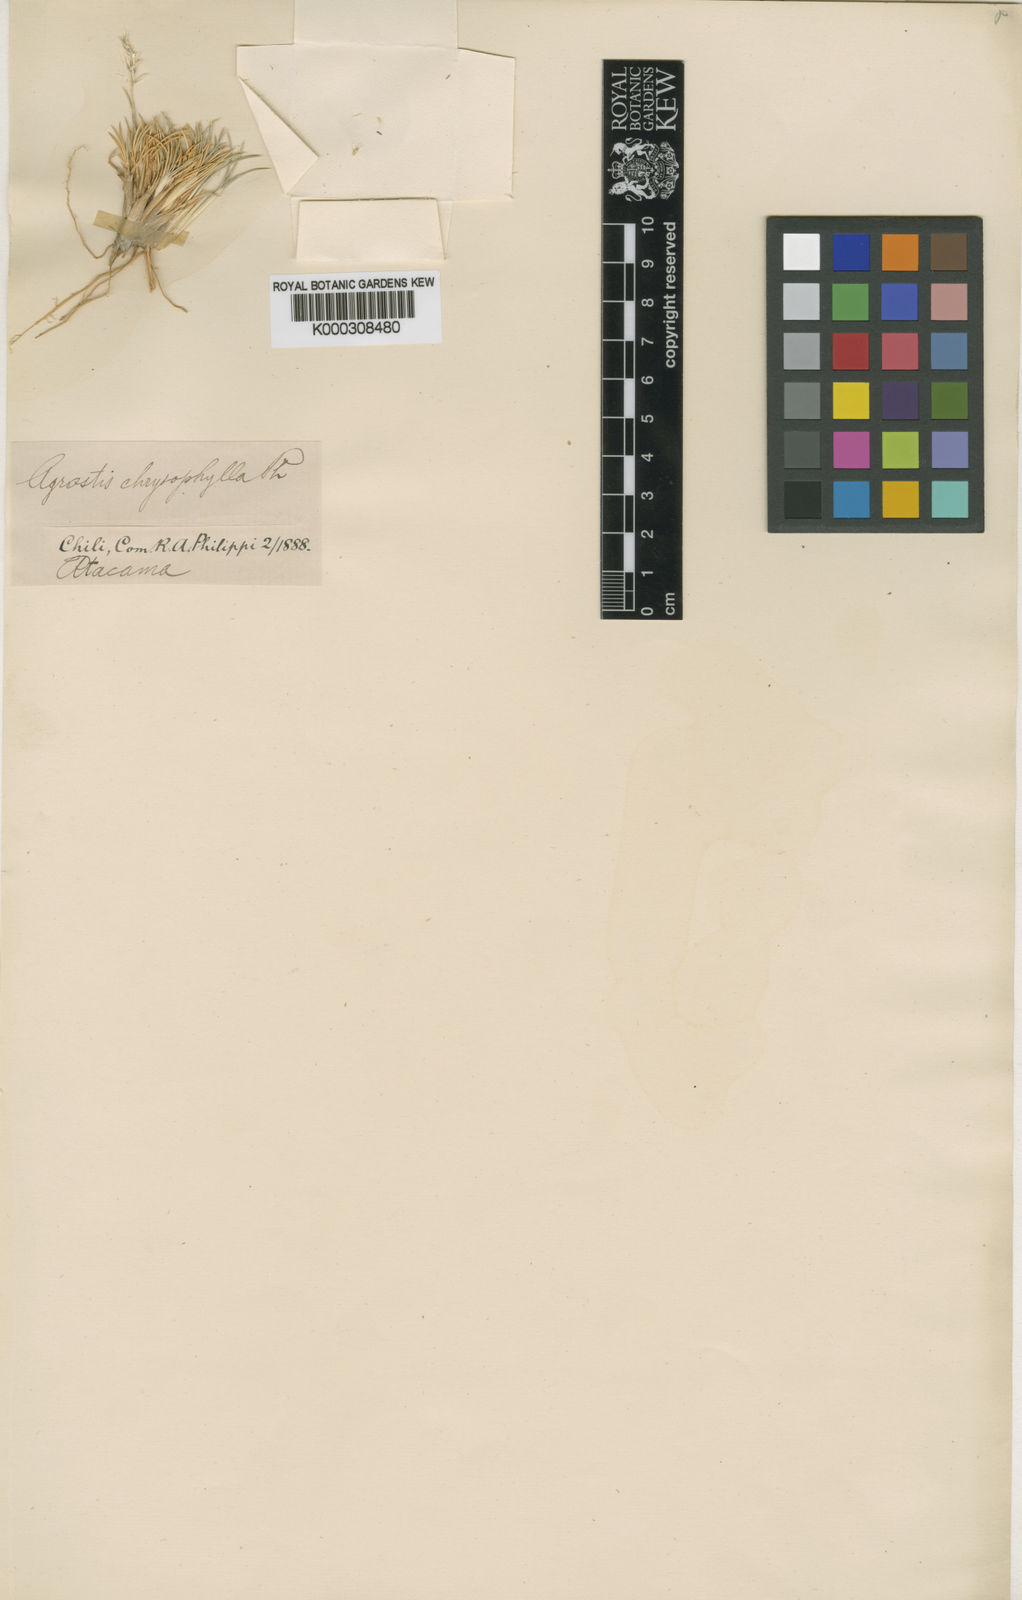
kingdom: Plantae
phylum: Tracheophyta
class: Liliopsida
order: Poales
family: Poaceae
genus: Cinnagrostis
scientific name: Cinnagrostis chrysophylla
